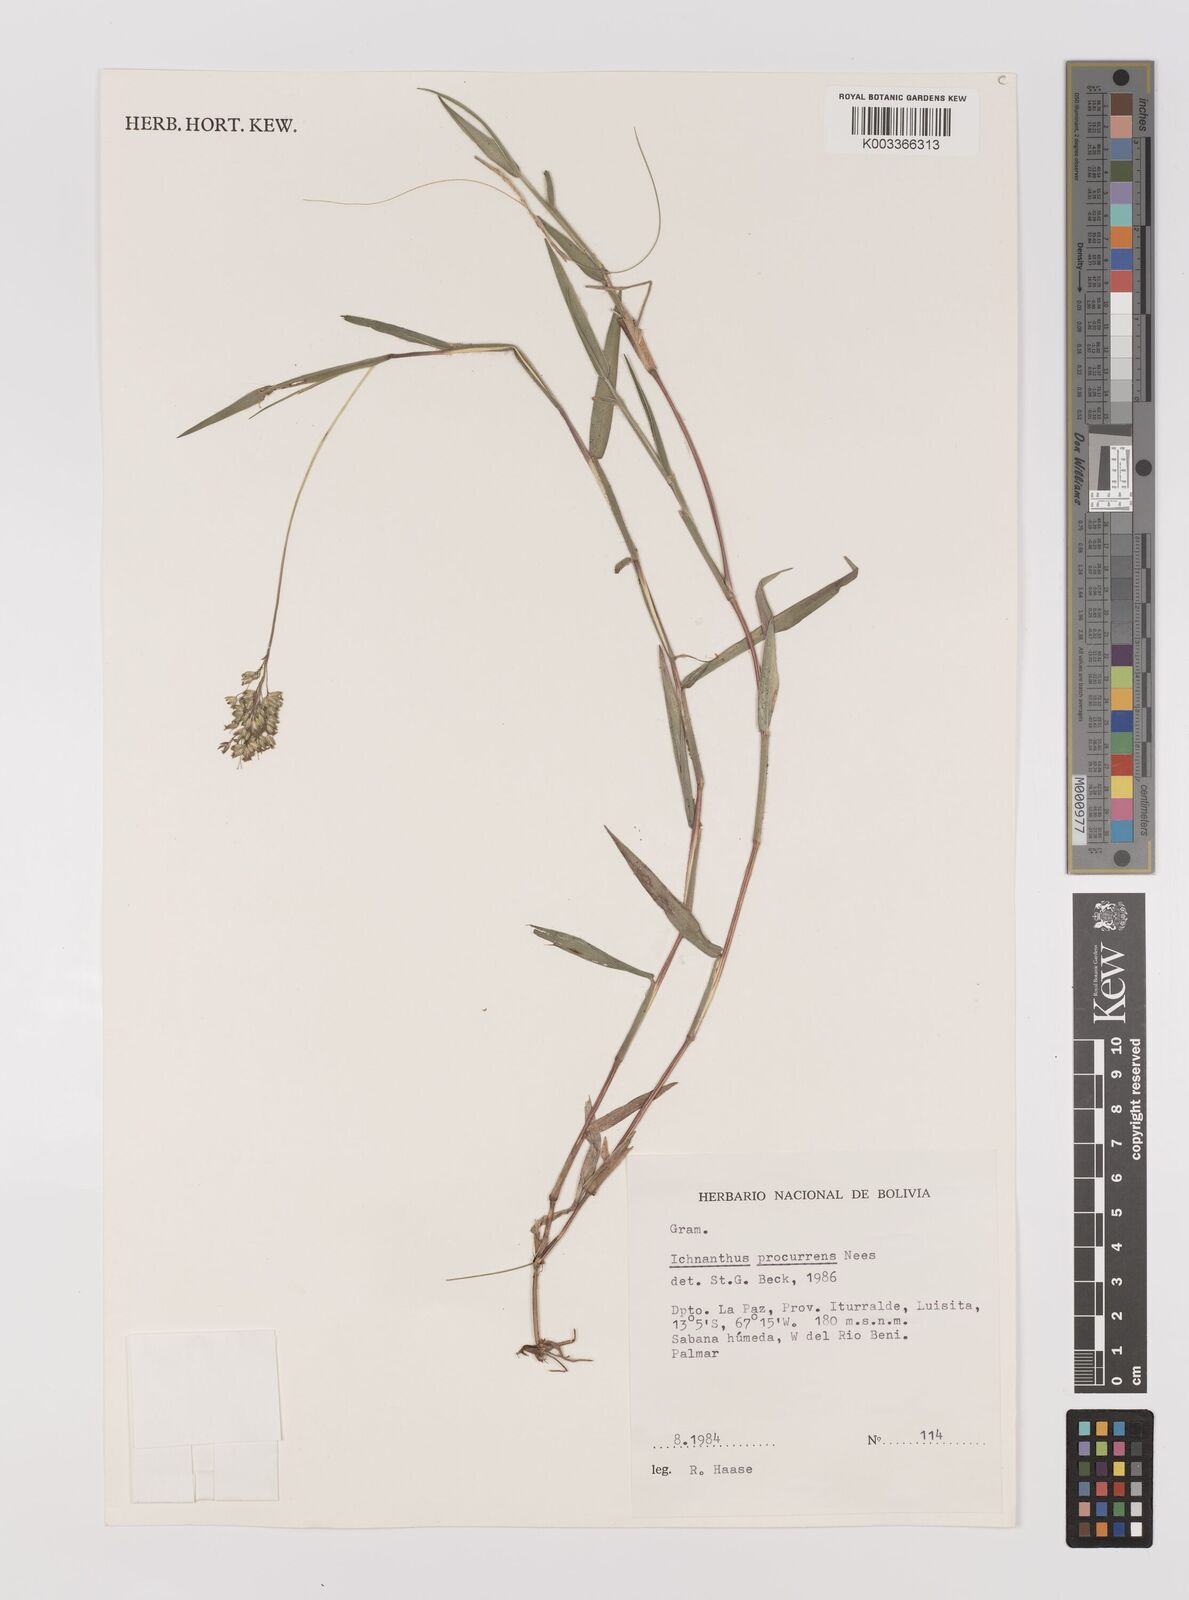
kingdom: Plantae
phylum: Tracheophyta
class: Liliopsida
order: Poales
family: Poaceae
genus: Oedochloa
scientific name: Oedochloa procurrens
